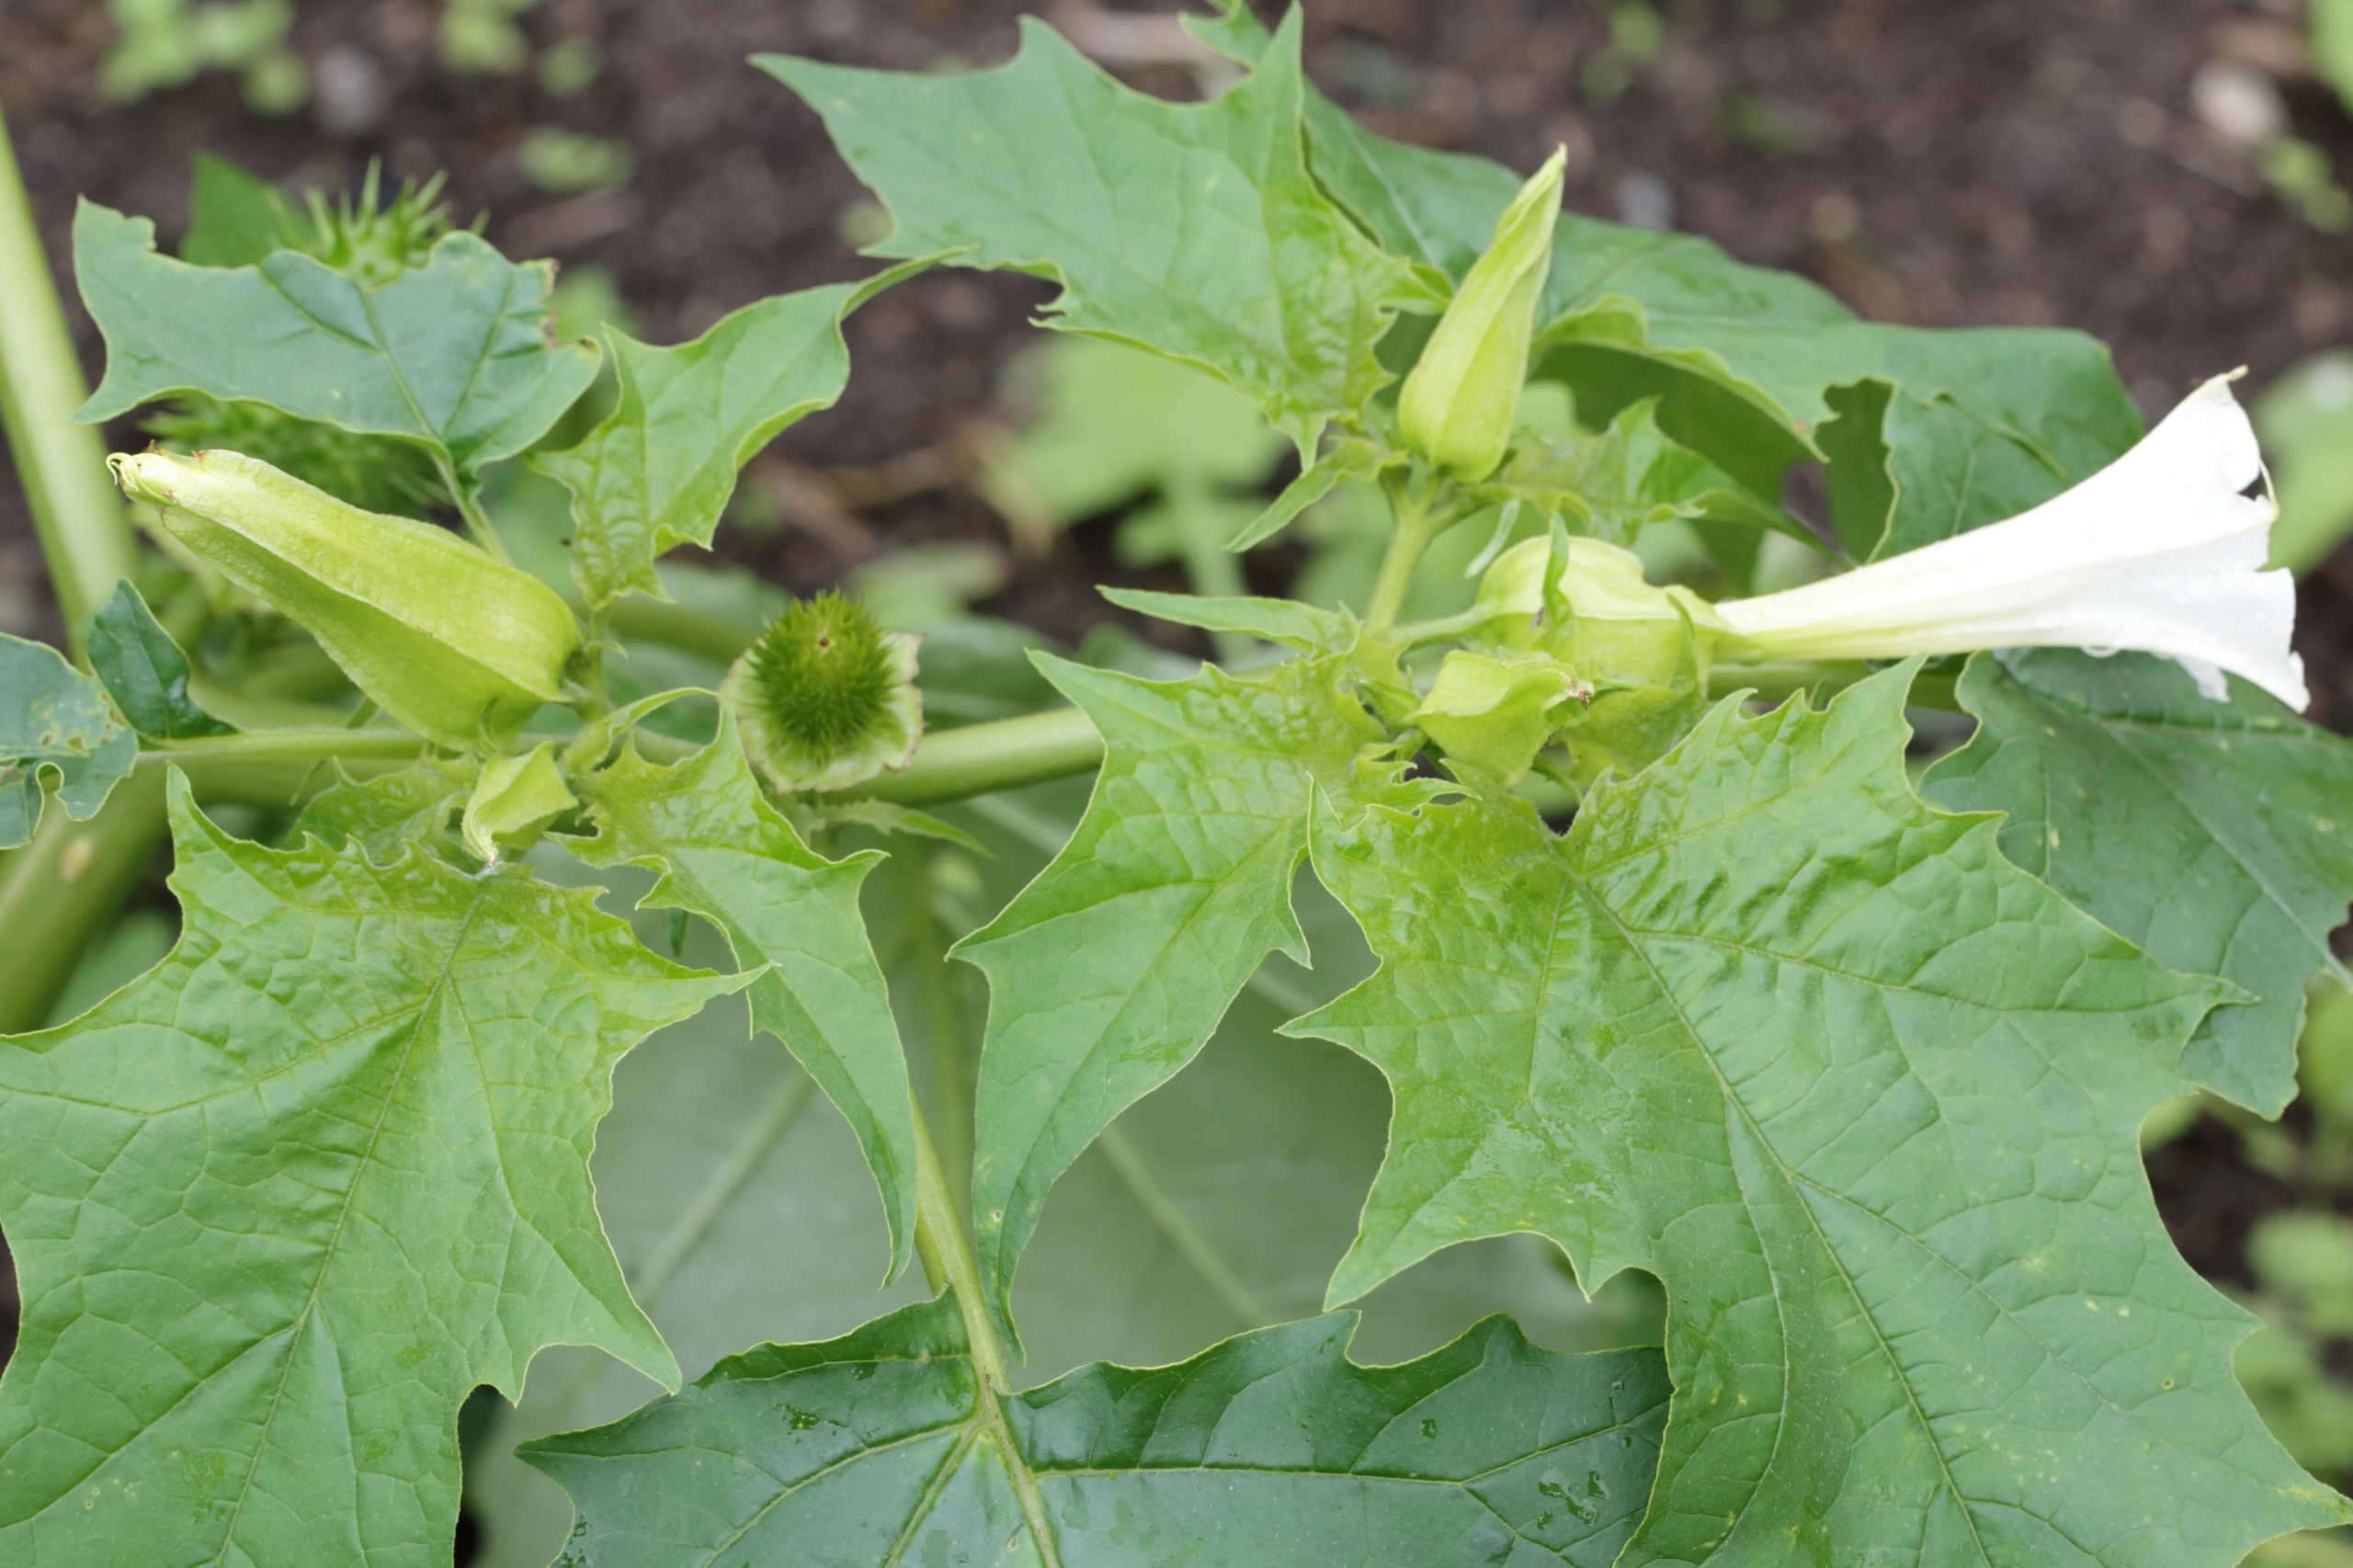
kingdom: Plantae
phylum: Tracheophyta
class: Magnoliopsida
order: Solanales
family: Solanaceae
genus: Datura
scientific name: Datura stramonium
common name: Pigæble
